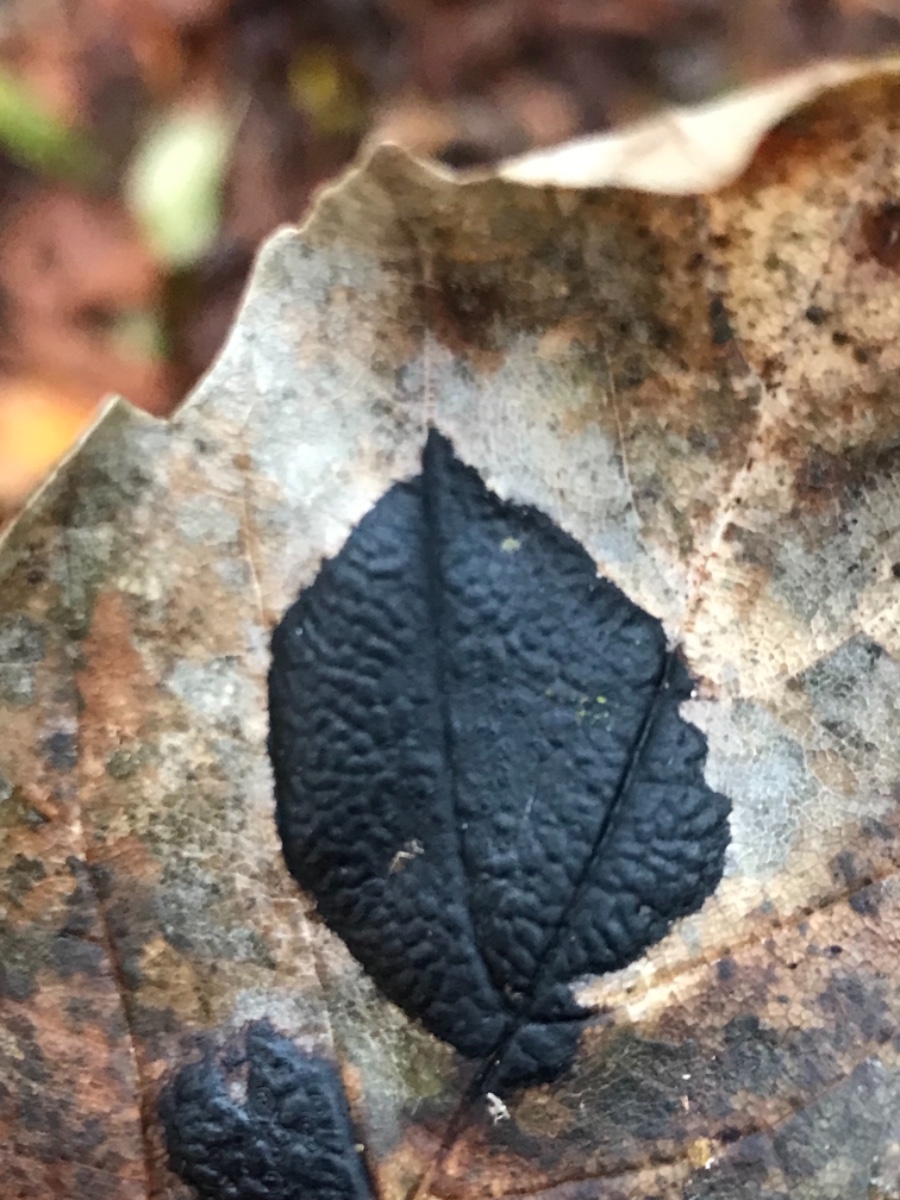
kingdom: Fungi
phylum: Ascomycota
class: Leotiomycetes
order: Rhytismatales
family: Rhytismataceae
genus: Rhytisma
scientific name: Rhytisma acerinum
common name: ahorn-rynkeplet
